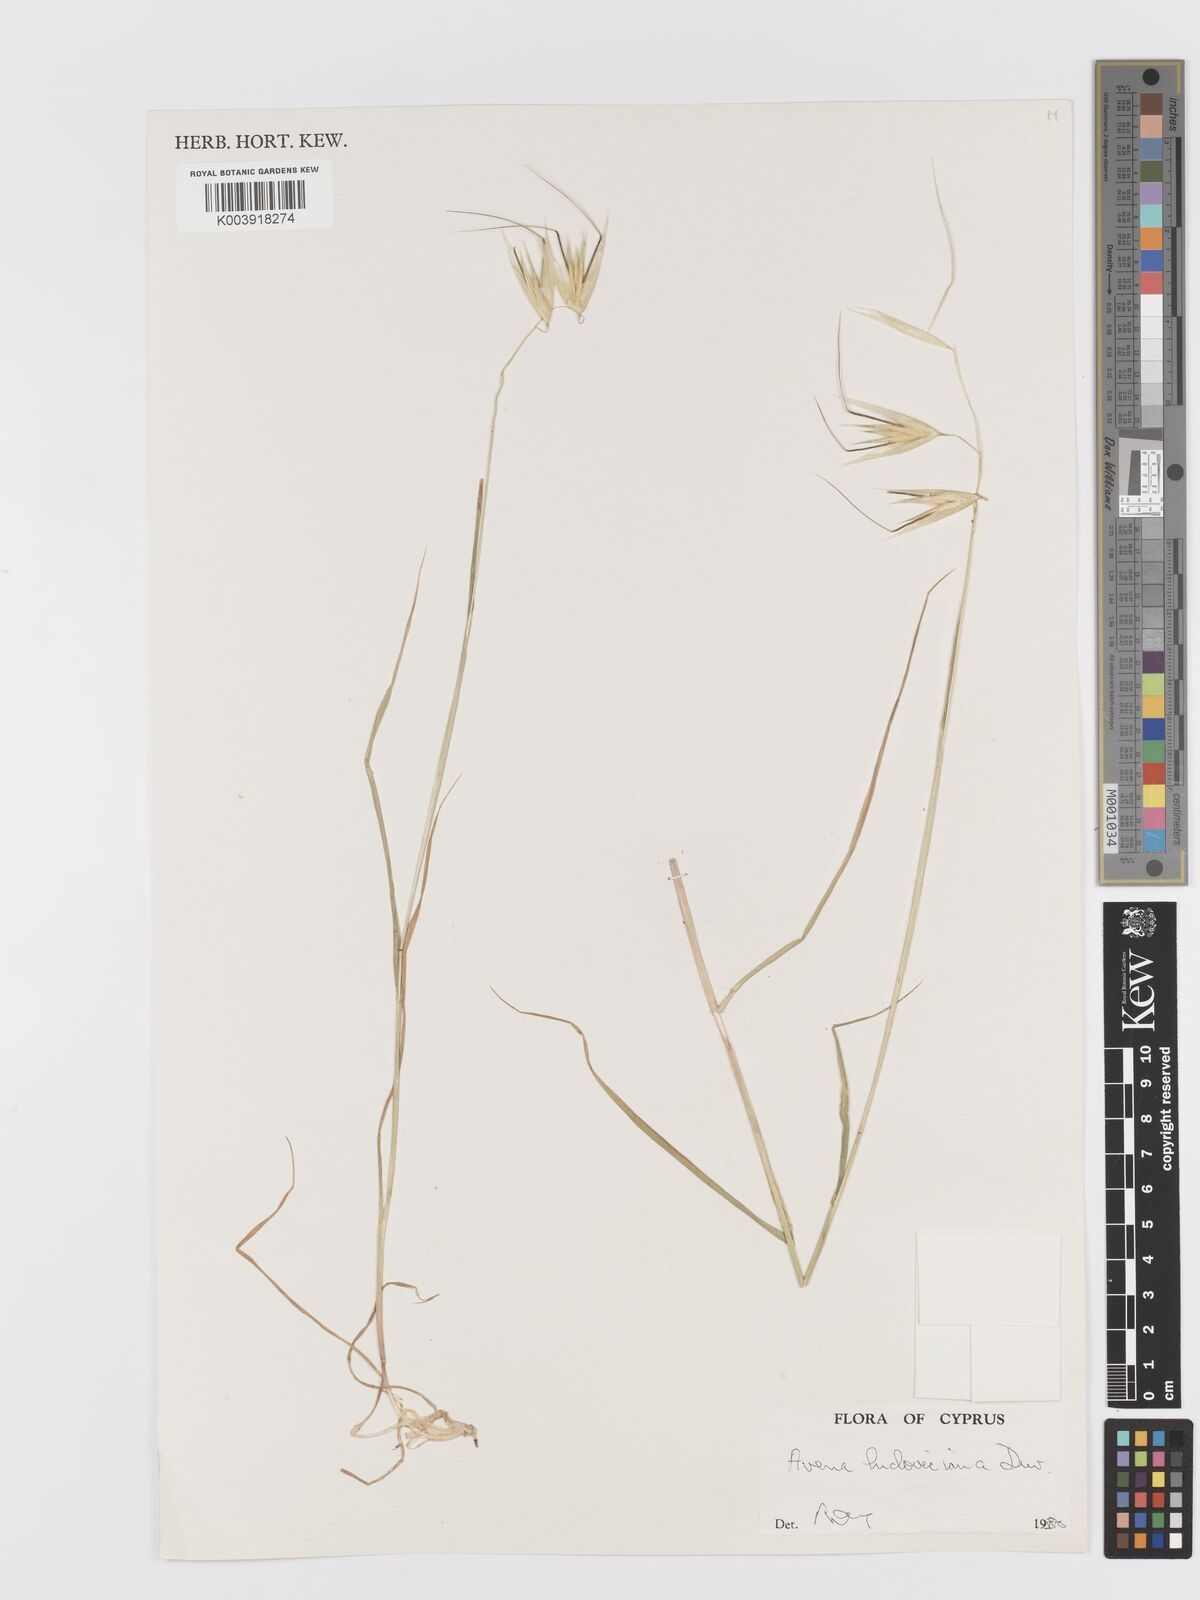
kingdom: Plantae
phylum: Tracheophyta
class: Liliopsida
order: Poales
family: Poaceae
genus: Avena
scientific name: Avena sterilis
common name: Animated oat
